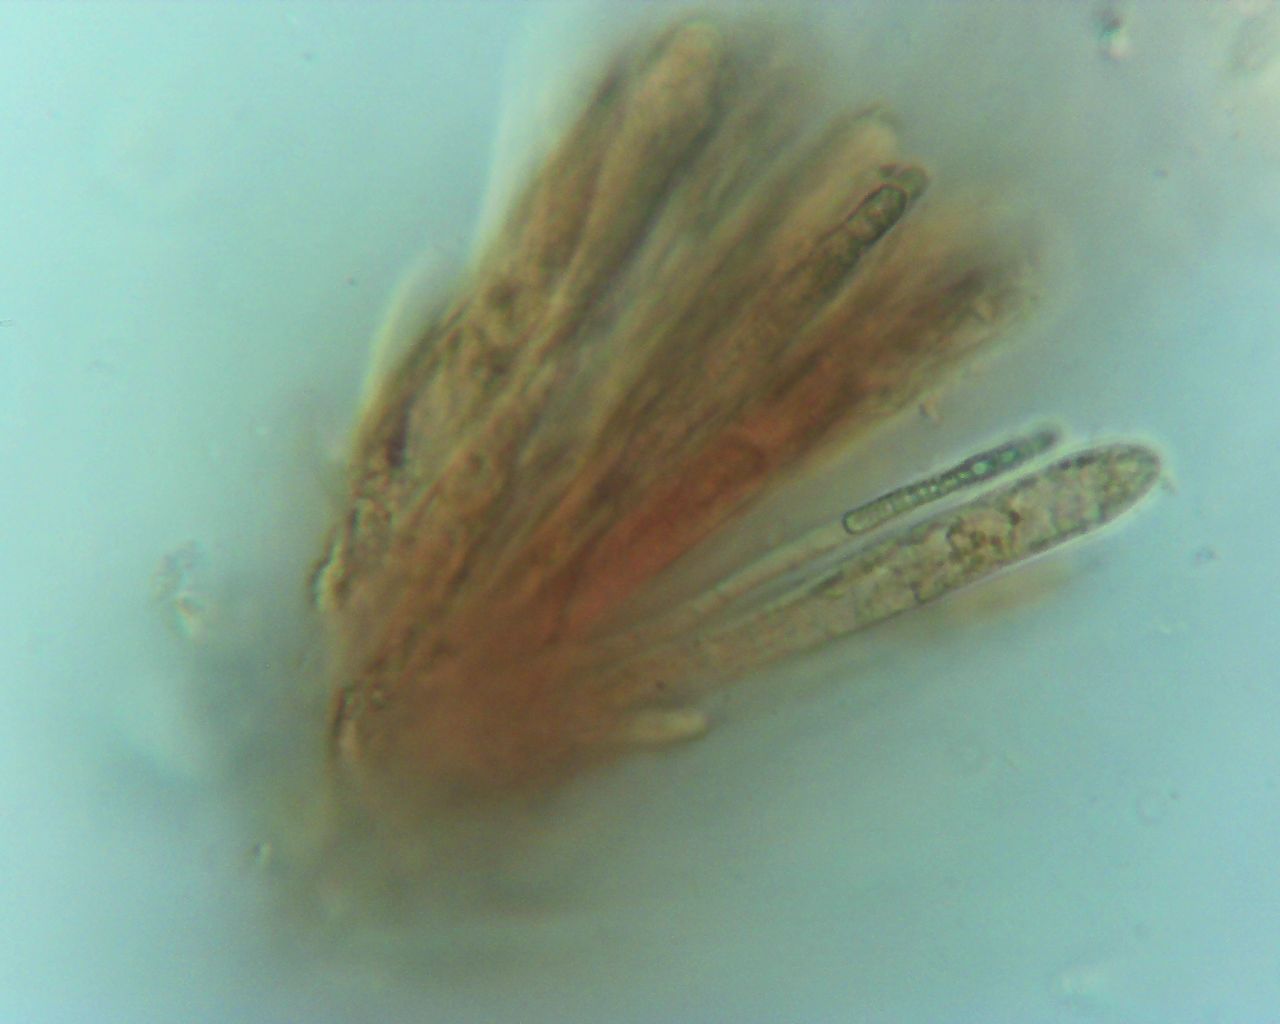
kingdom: Fungi
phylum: Ascomycota
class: Leotiomycetes
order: Helotiales
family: Mollisiaceae
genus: Mollisia
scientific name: Mollisia ligni
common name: ved-gråskive
